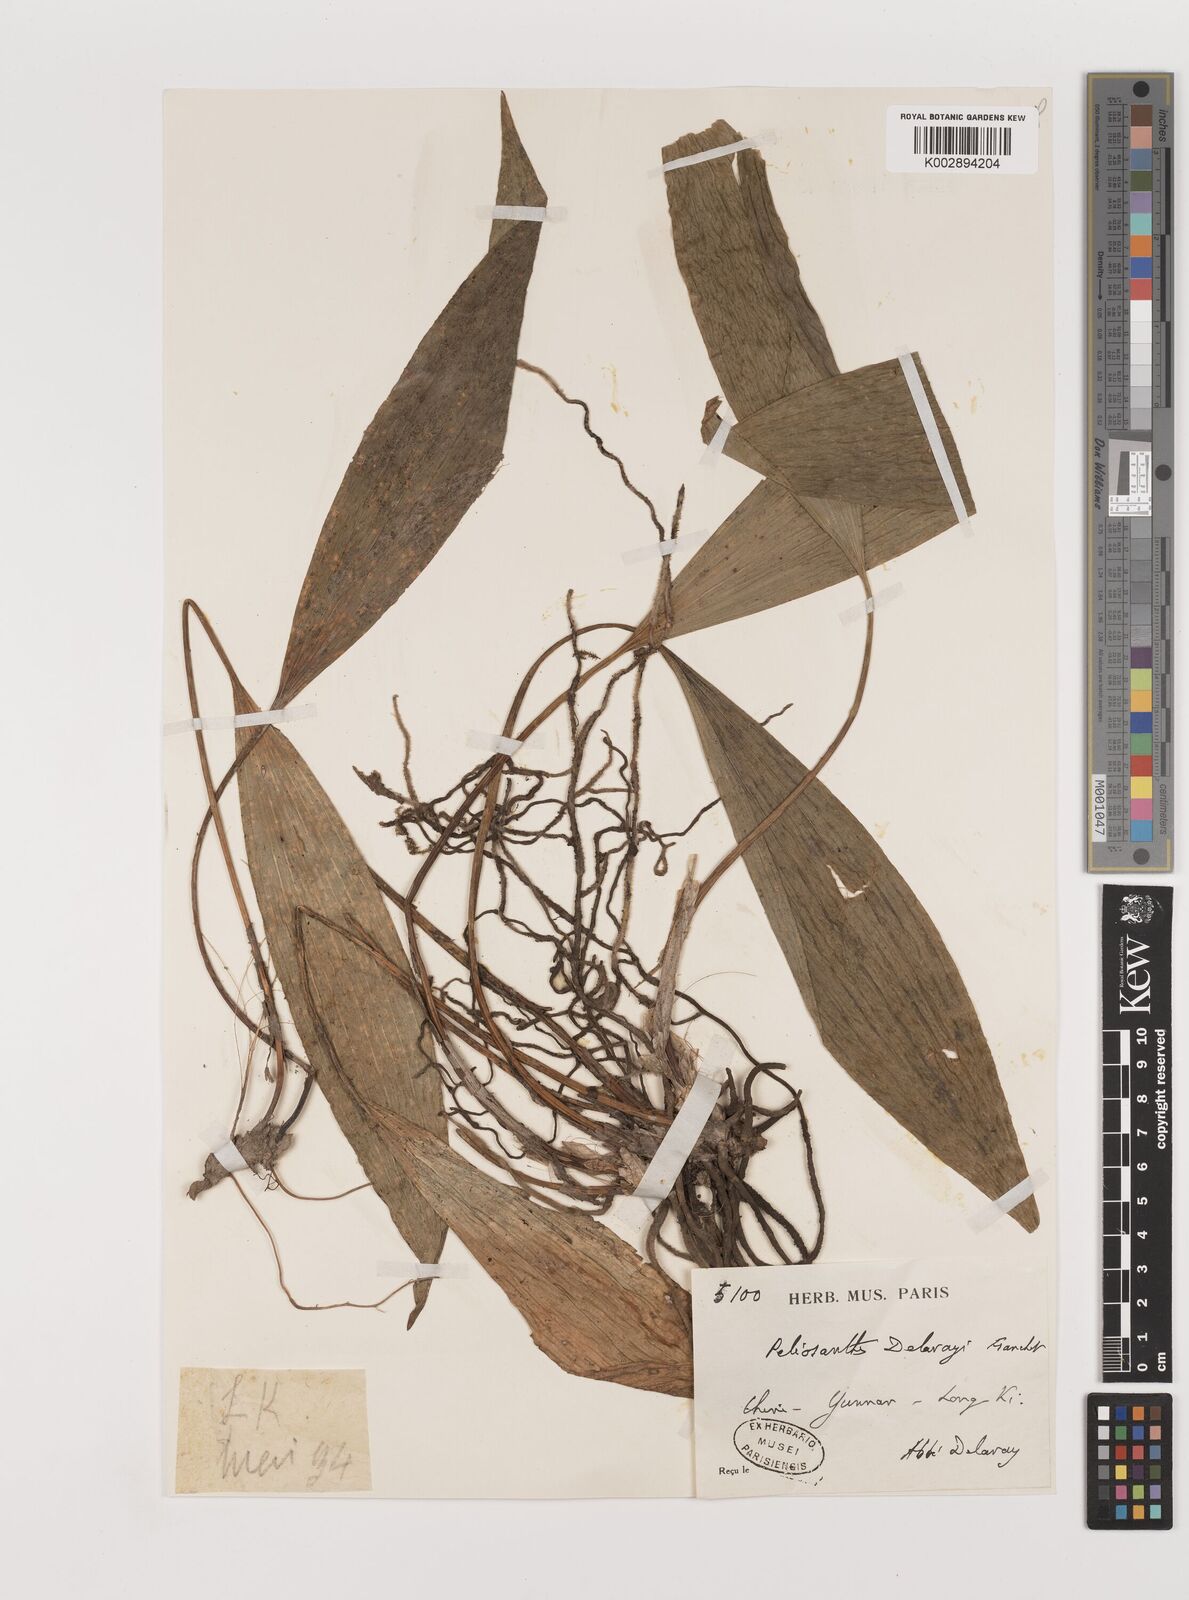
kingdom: Plantae
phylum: Tracheophyta
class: Liliopsida
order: Asparagales
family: Asparagaceae
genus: Peliosanthes
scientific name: Peliosanthes teta
